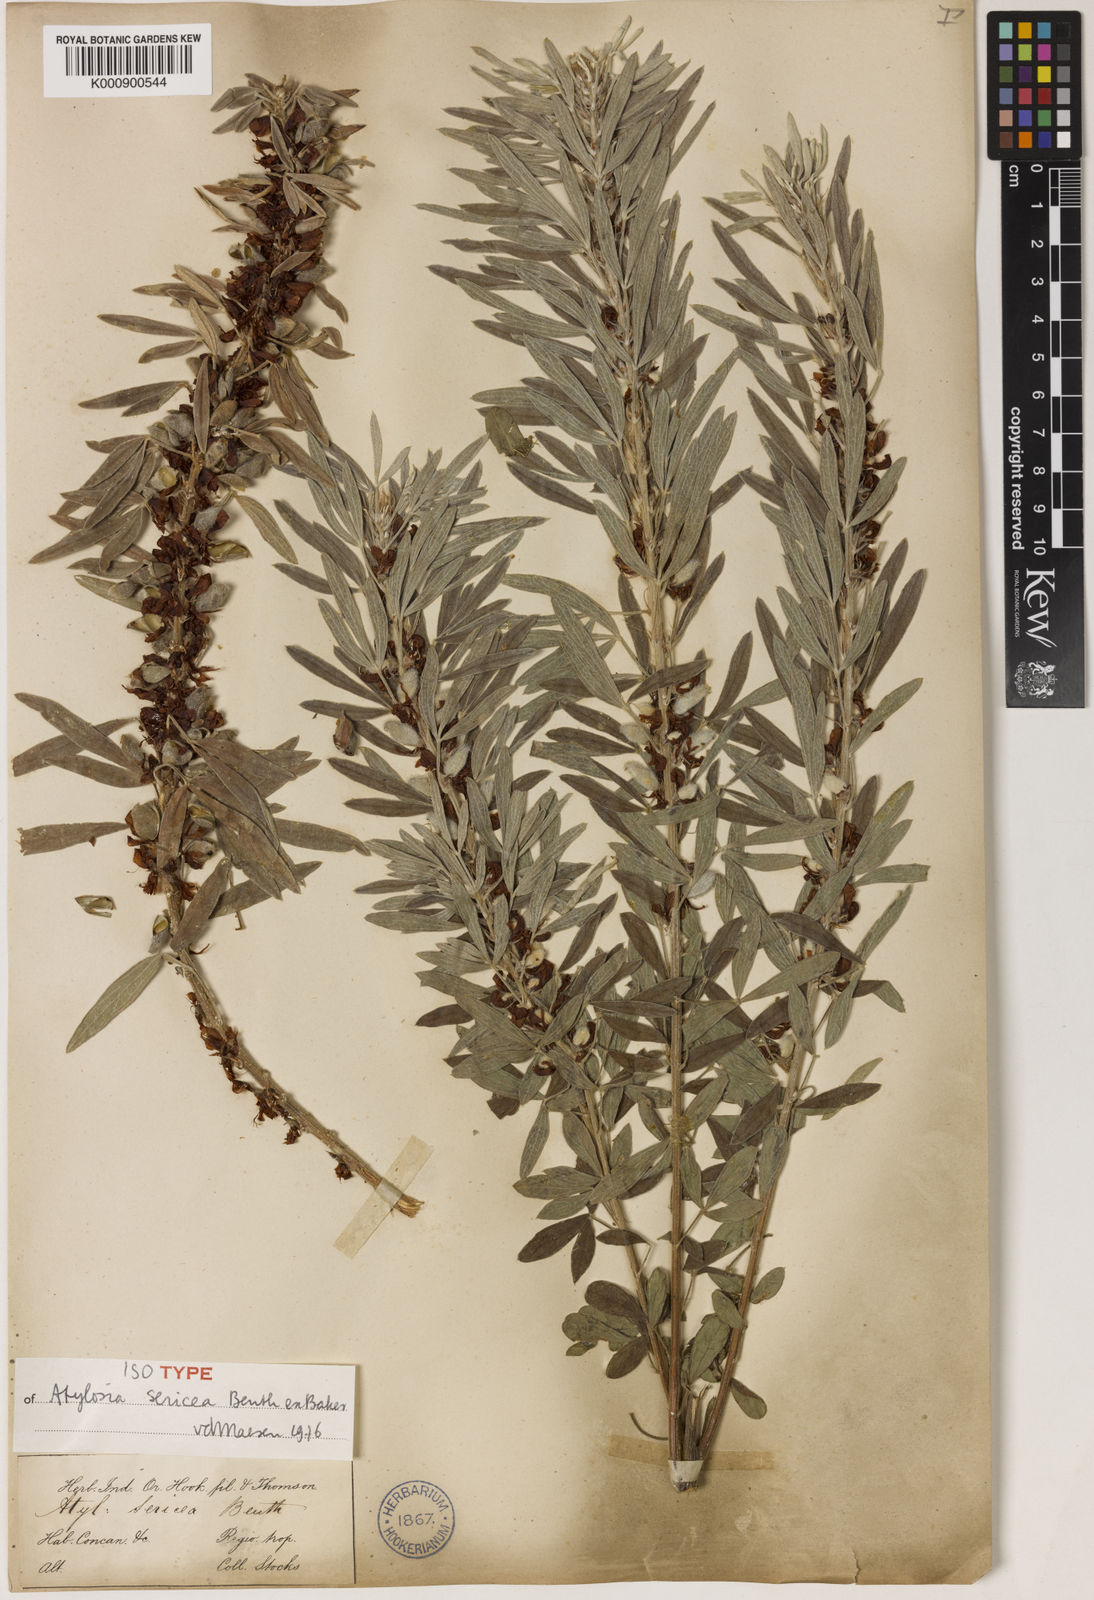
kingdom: Plantae
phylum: Tracheophyta
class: Magnoliopsida
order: Fabales
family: Fabaceae
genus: Cajanus
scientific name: Cajanus sericeus
